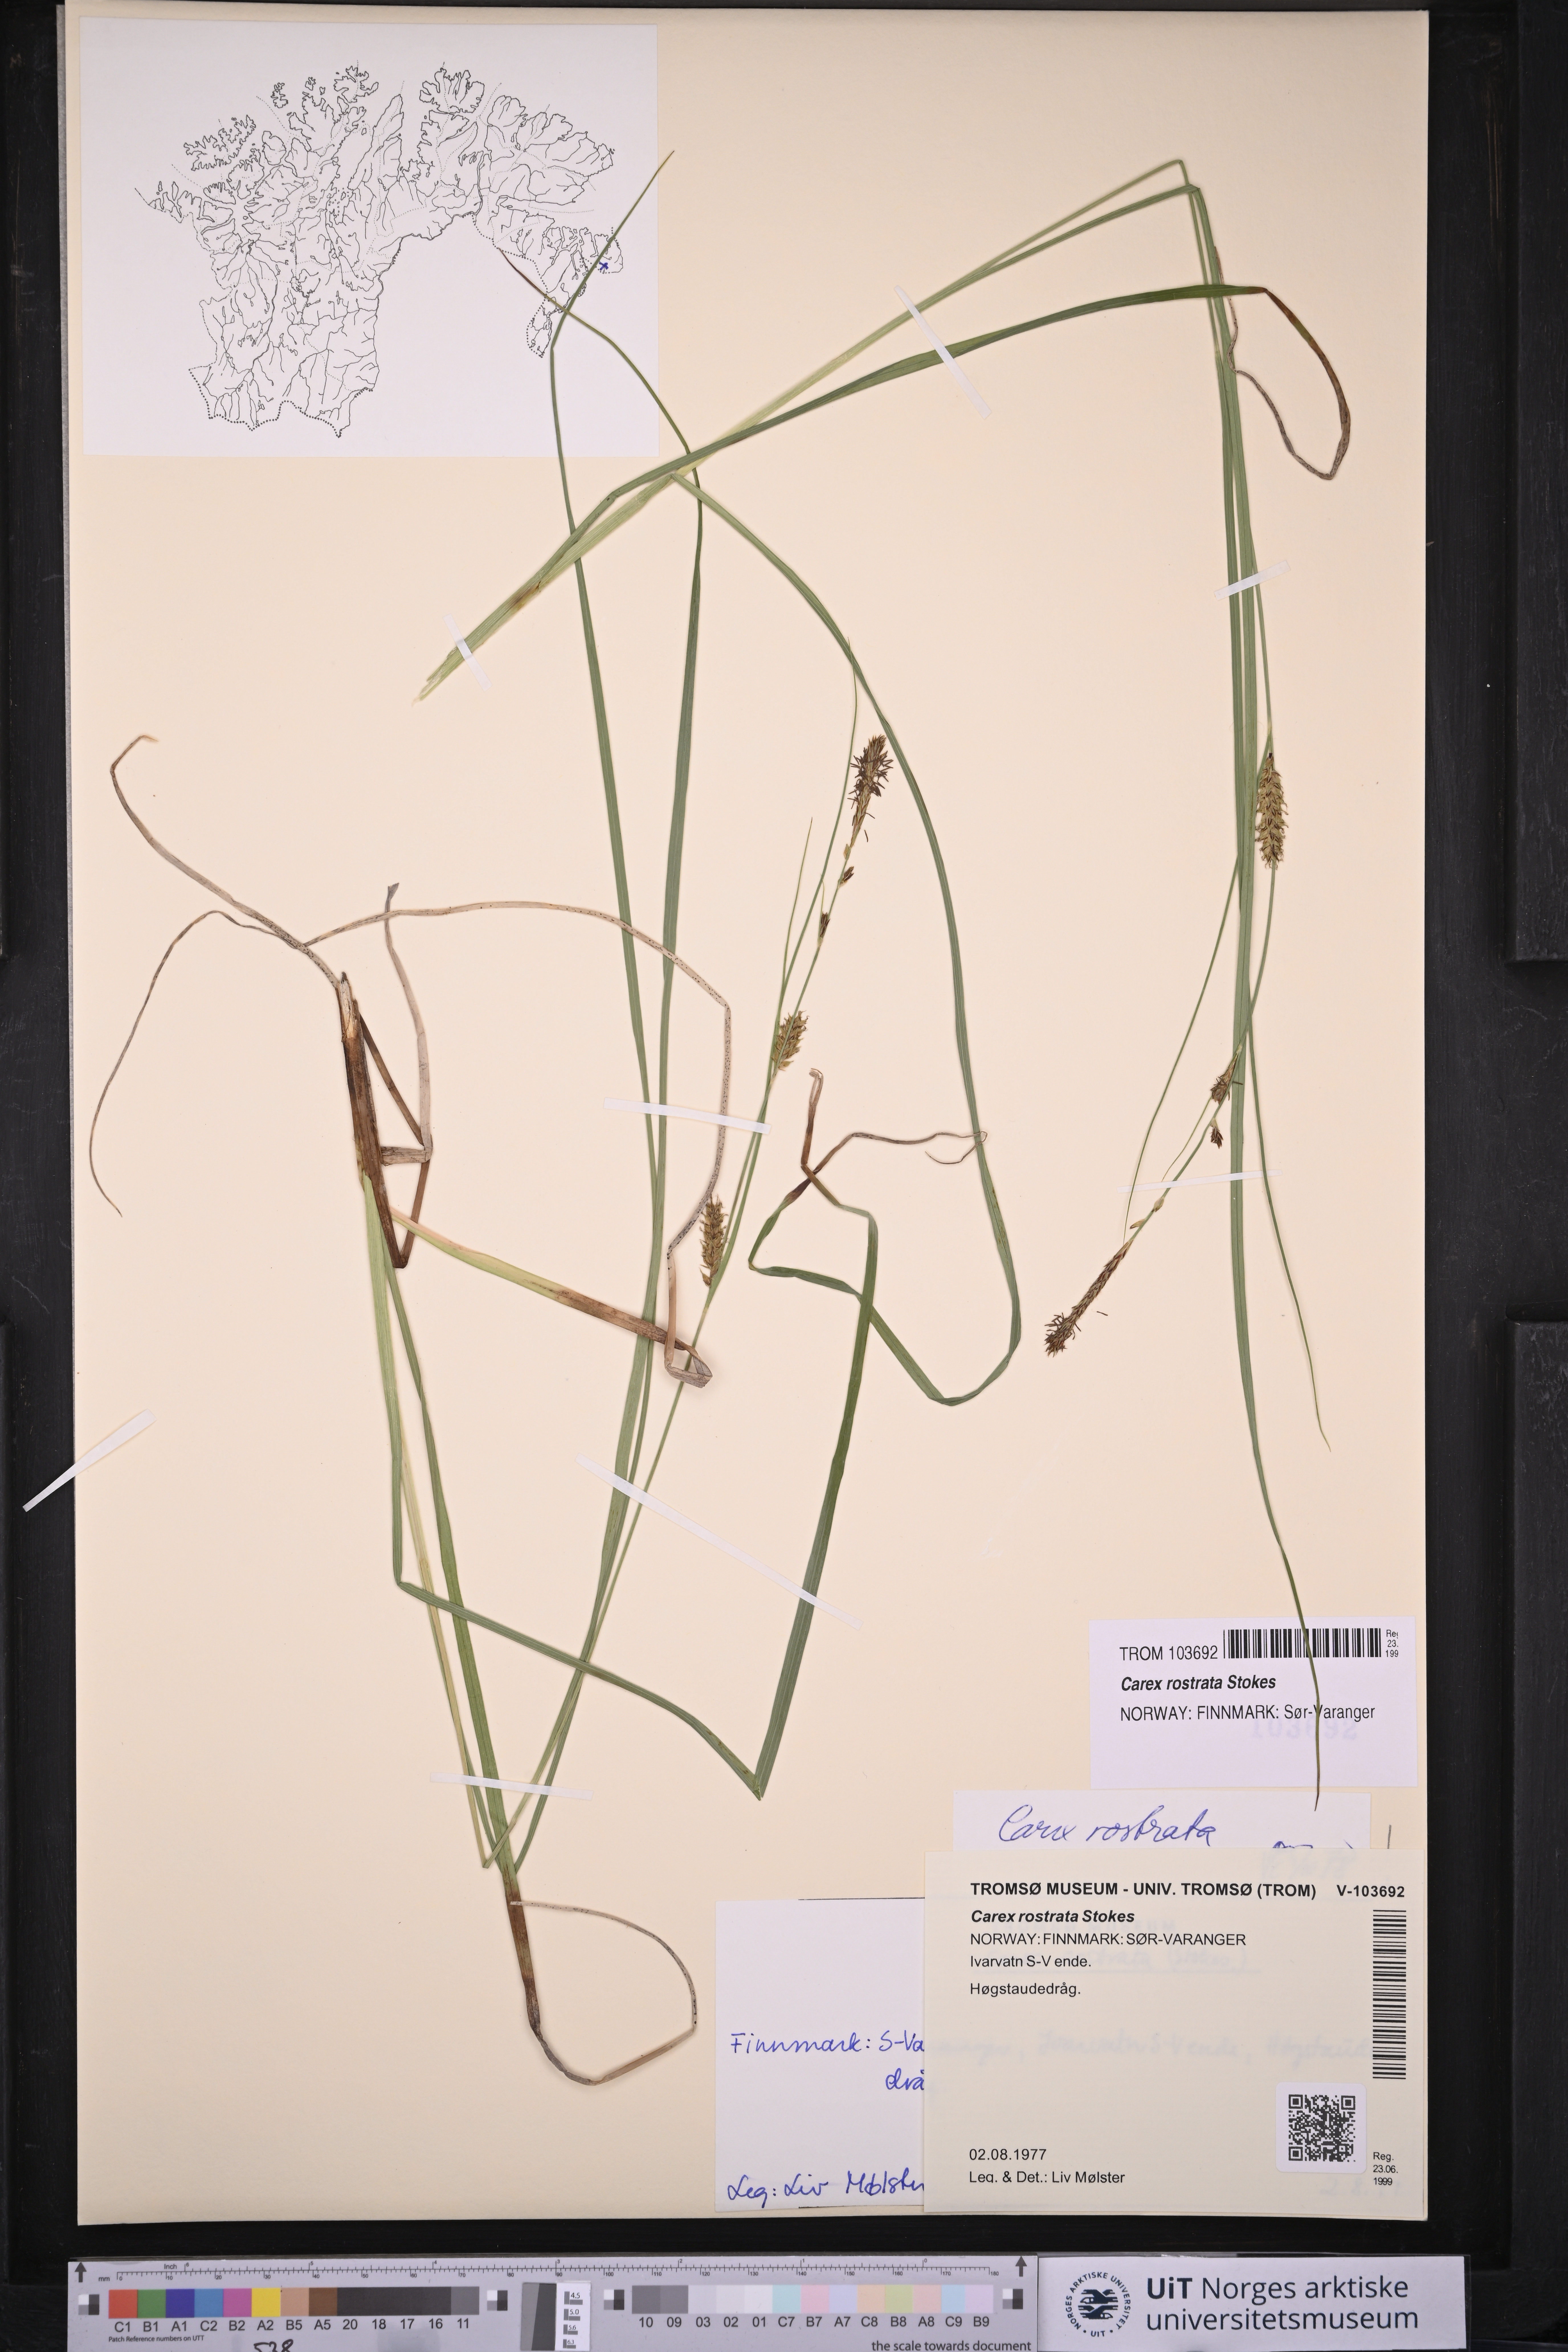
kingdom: Plantae
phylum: Tracheophyta
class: Liliopsida
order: Poales
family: Cyperaceae
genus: Carex
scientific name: Carex rostrata
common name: Bottle sedge
